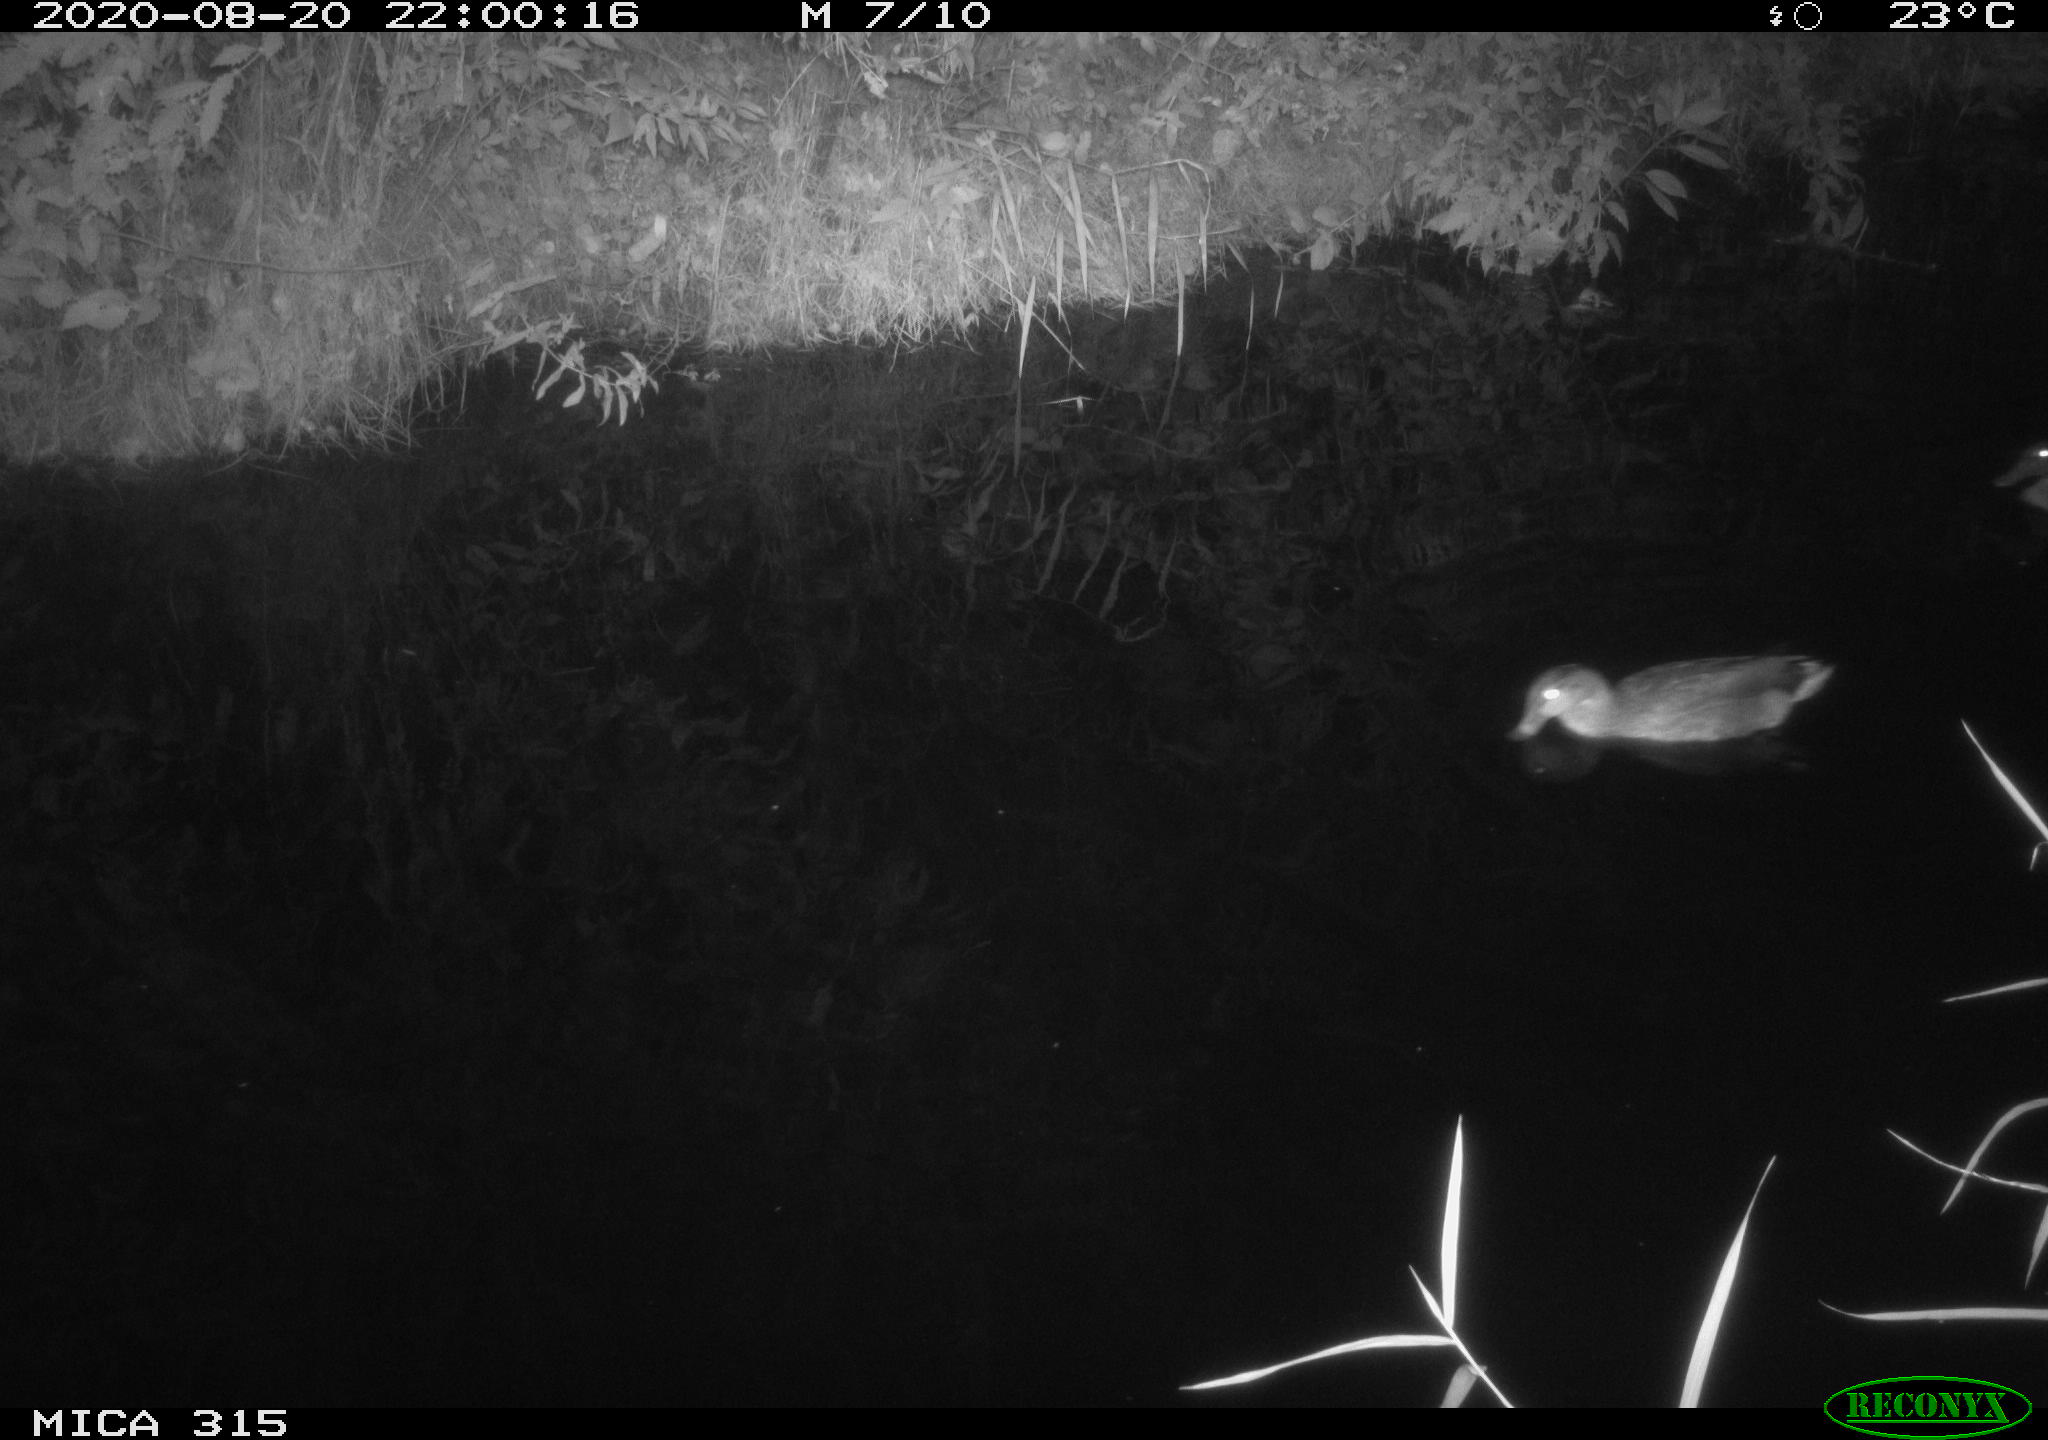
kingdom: Animalia
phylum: Chordata
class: Aves
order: Anseriformes
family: Anatidae
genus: Anas
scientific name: Anas platyrhynchos
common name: Mallard
